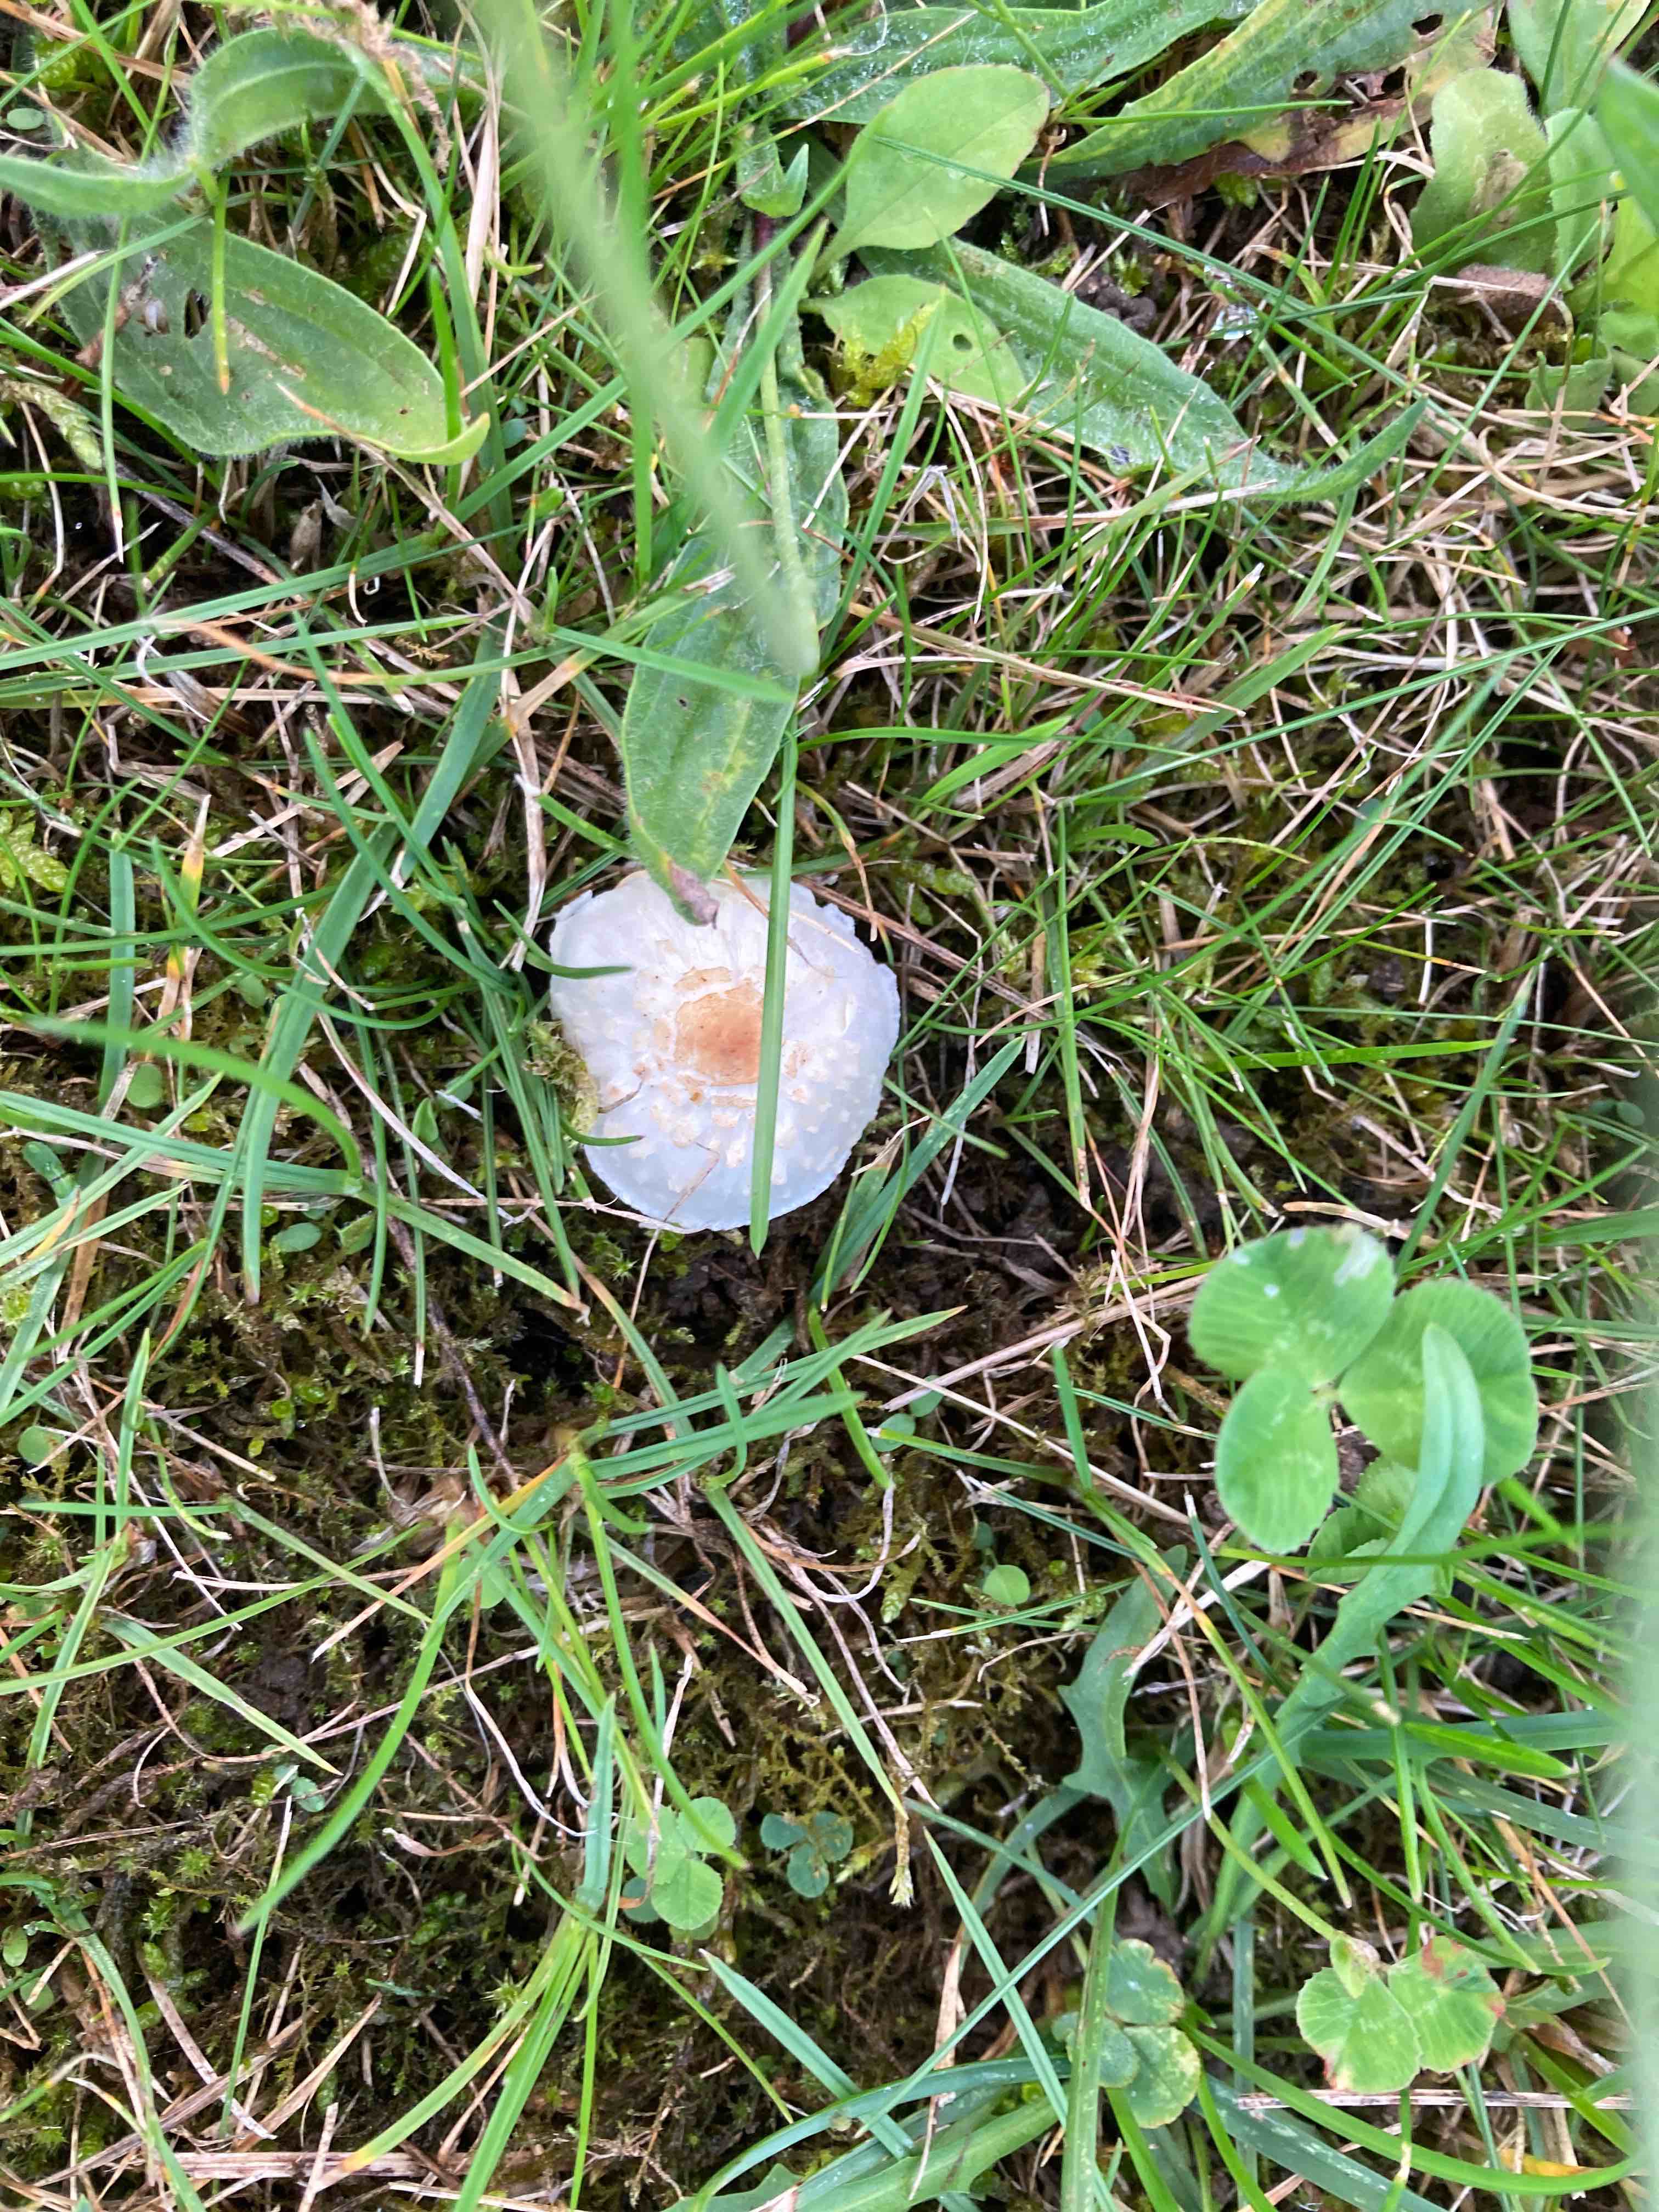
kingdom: Fungi
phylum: Basidiomycota
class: Agaricomycetes
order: Agaricales
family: Agaricaceae
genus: Lepiota
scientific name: Lepiota cristata
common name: stinkende parasolhat
